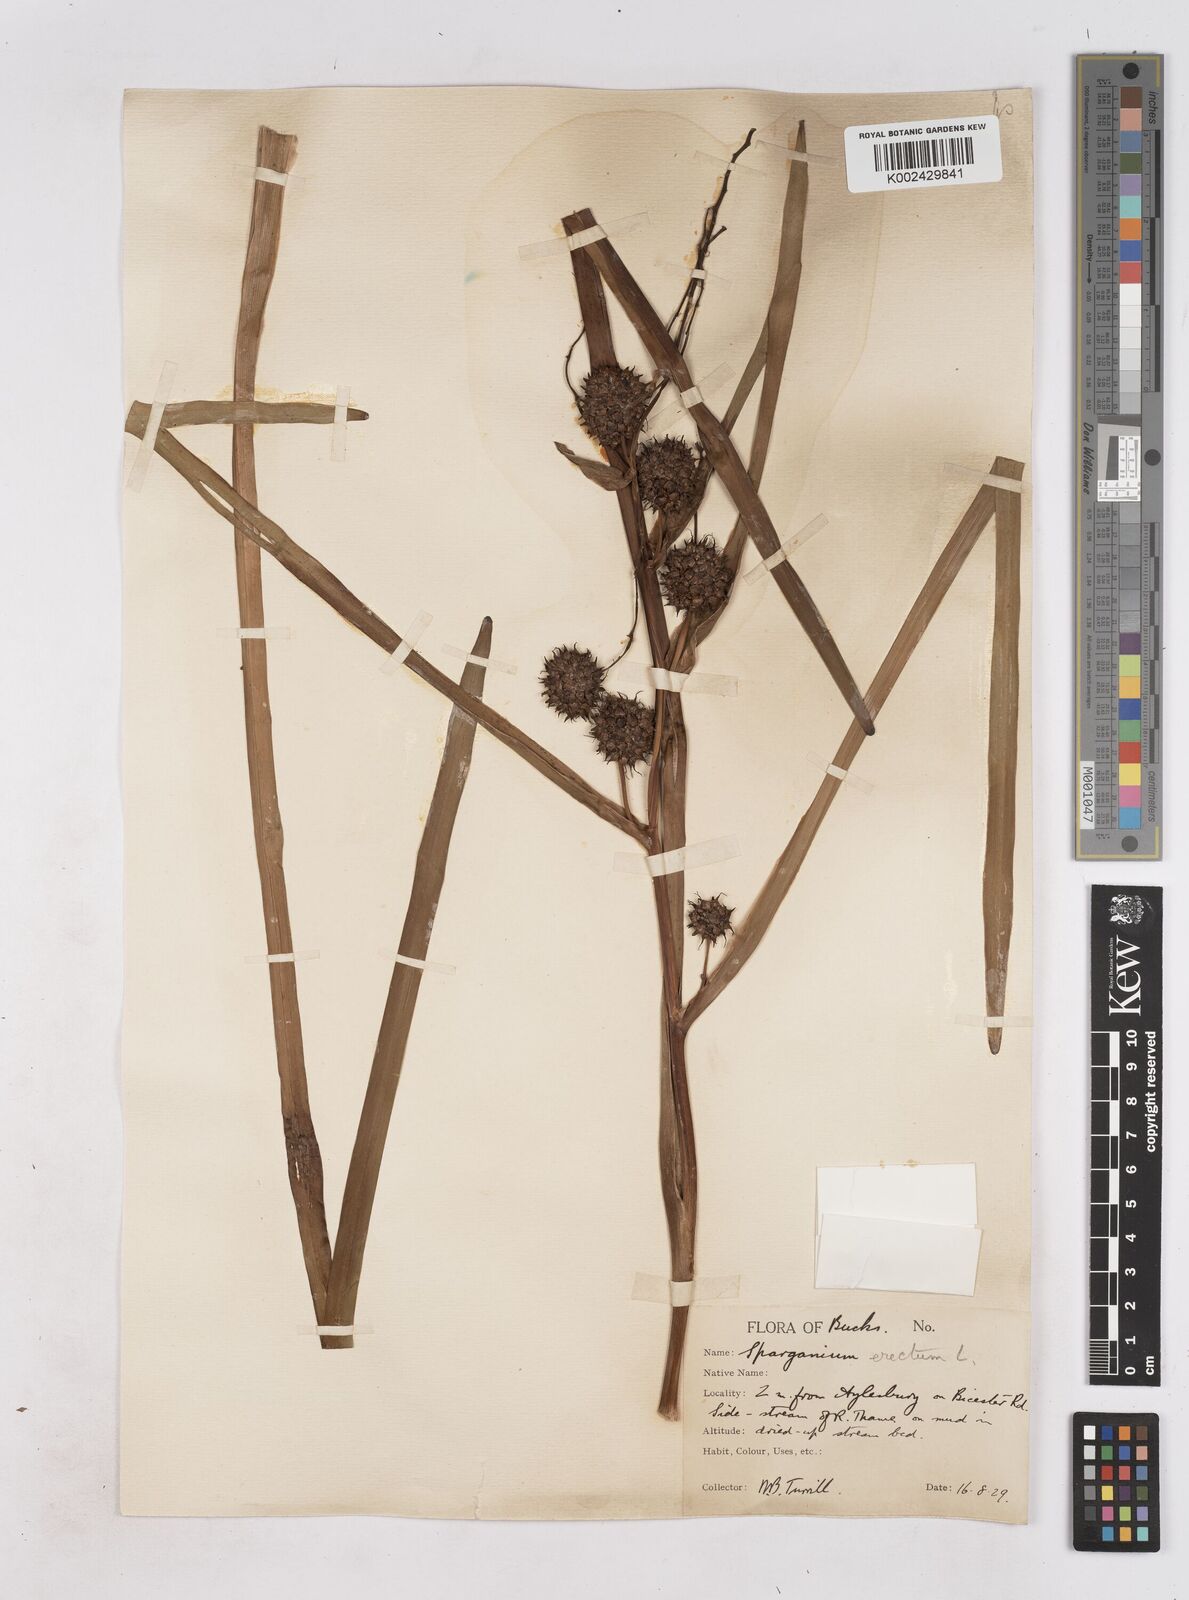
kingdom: Plantae
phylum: Tracheophyta
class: Liliopsida
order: Poales
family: Typhaceae
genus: Sparganium
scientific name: Sparganium erectum
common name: Branched bur-reed
